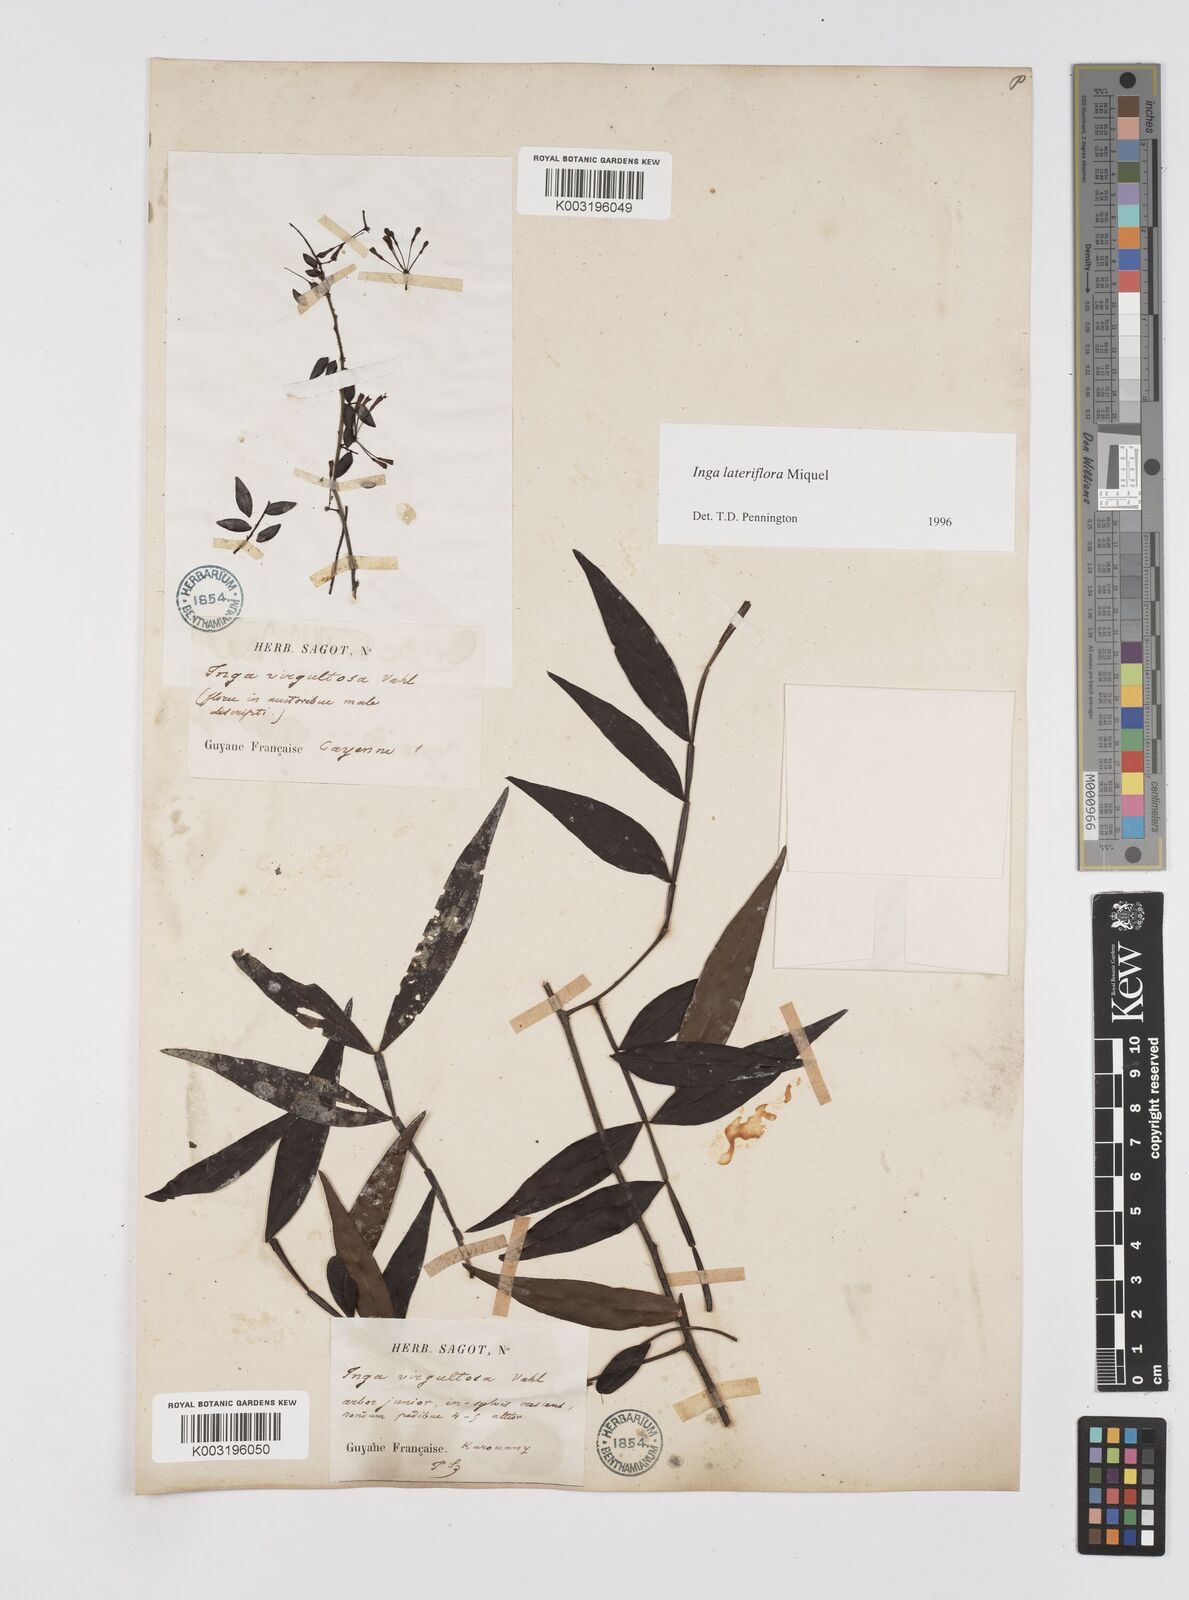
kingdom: Plantae
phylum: Tracheophyta
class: Magnoliopsida
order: Fabales
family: Fabaceae
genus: Inga
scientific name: Inga lateriflora
